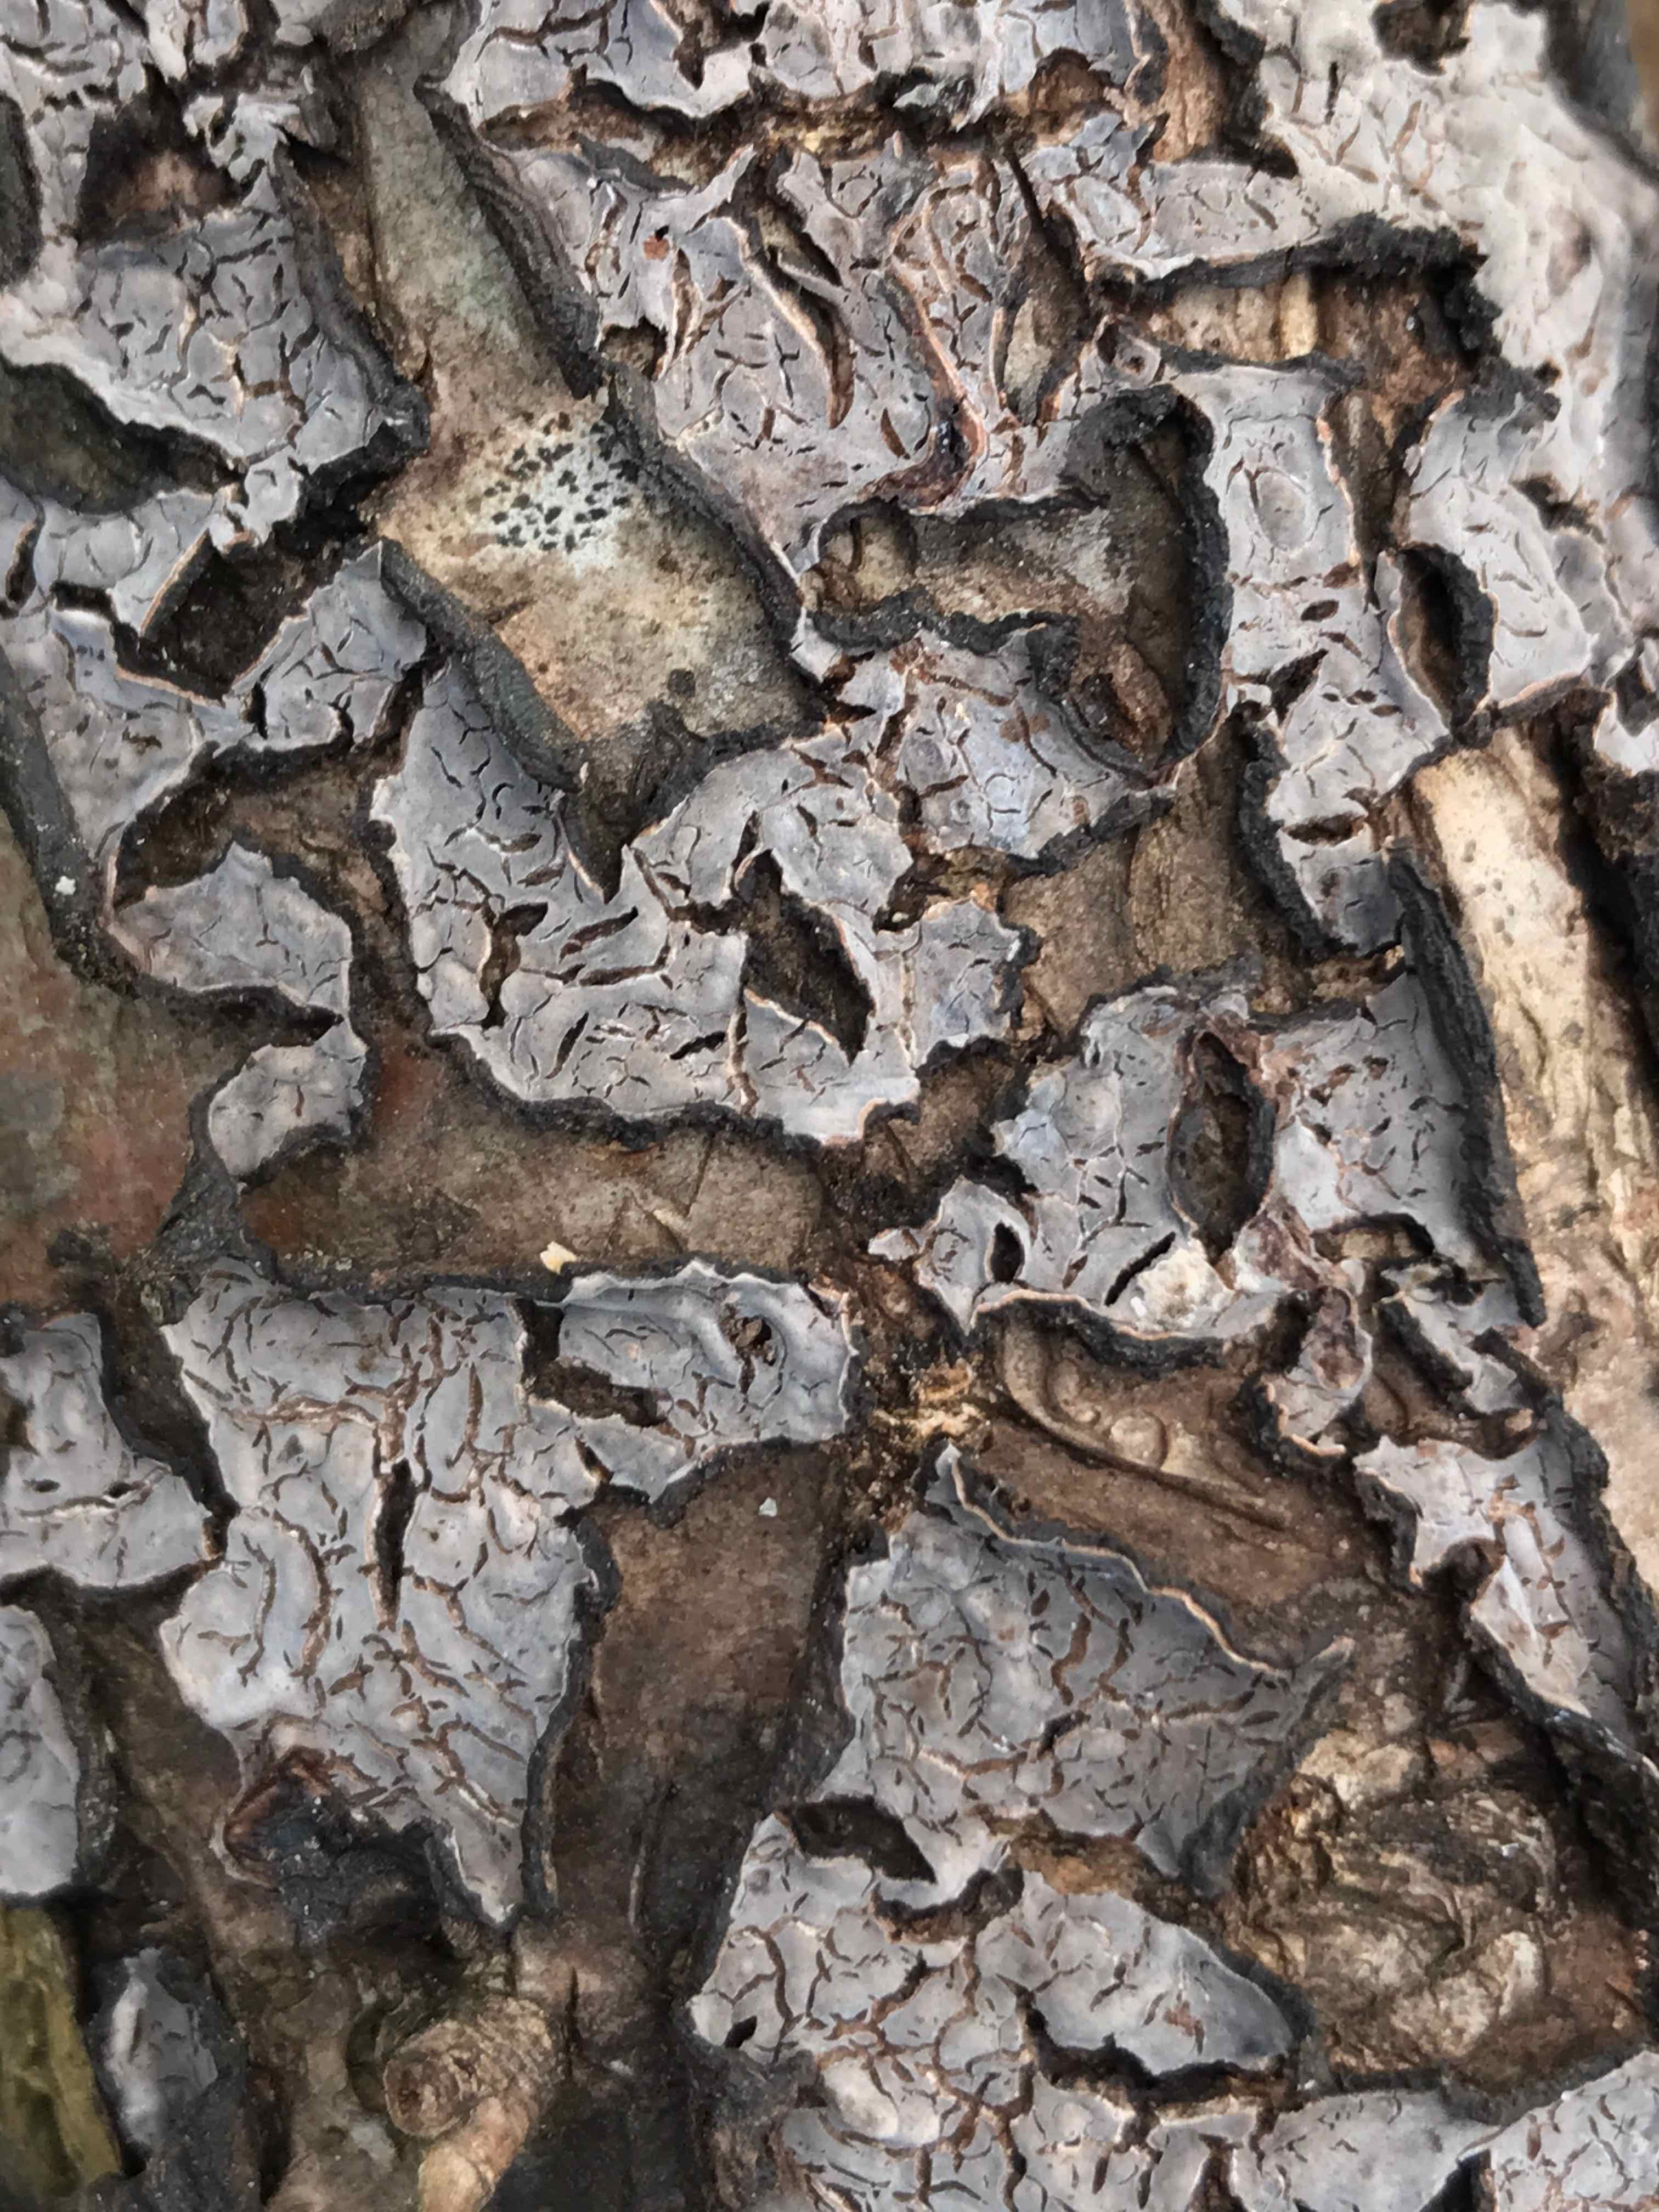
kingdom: Fungi
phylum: Basidiomycota
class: Agaricomycetes
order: Russulales
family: Peniophoraceae
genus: Peniophora
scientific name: Peniophora quercina
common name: ege-voksskind
